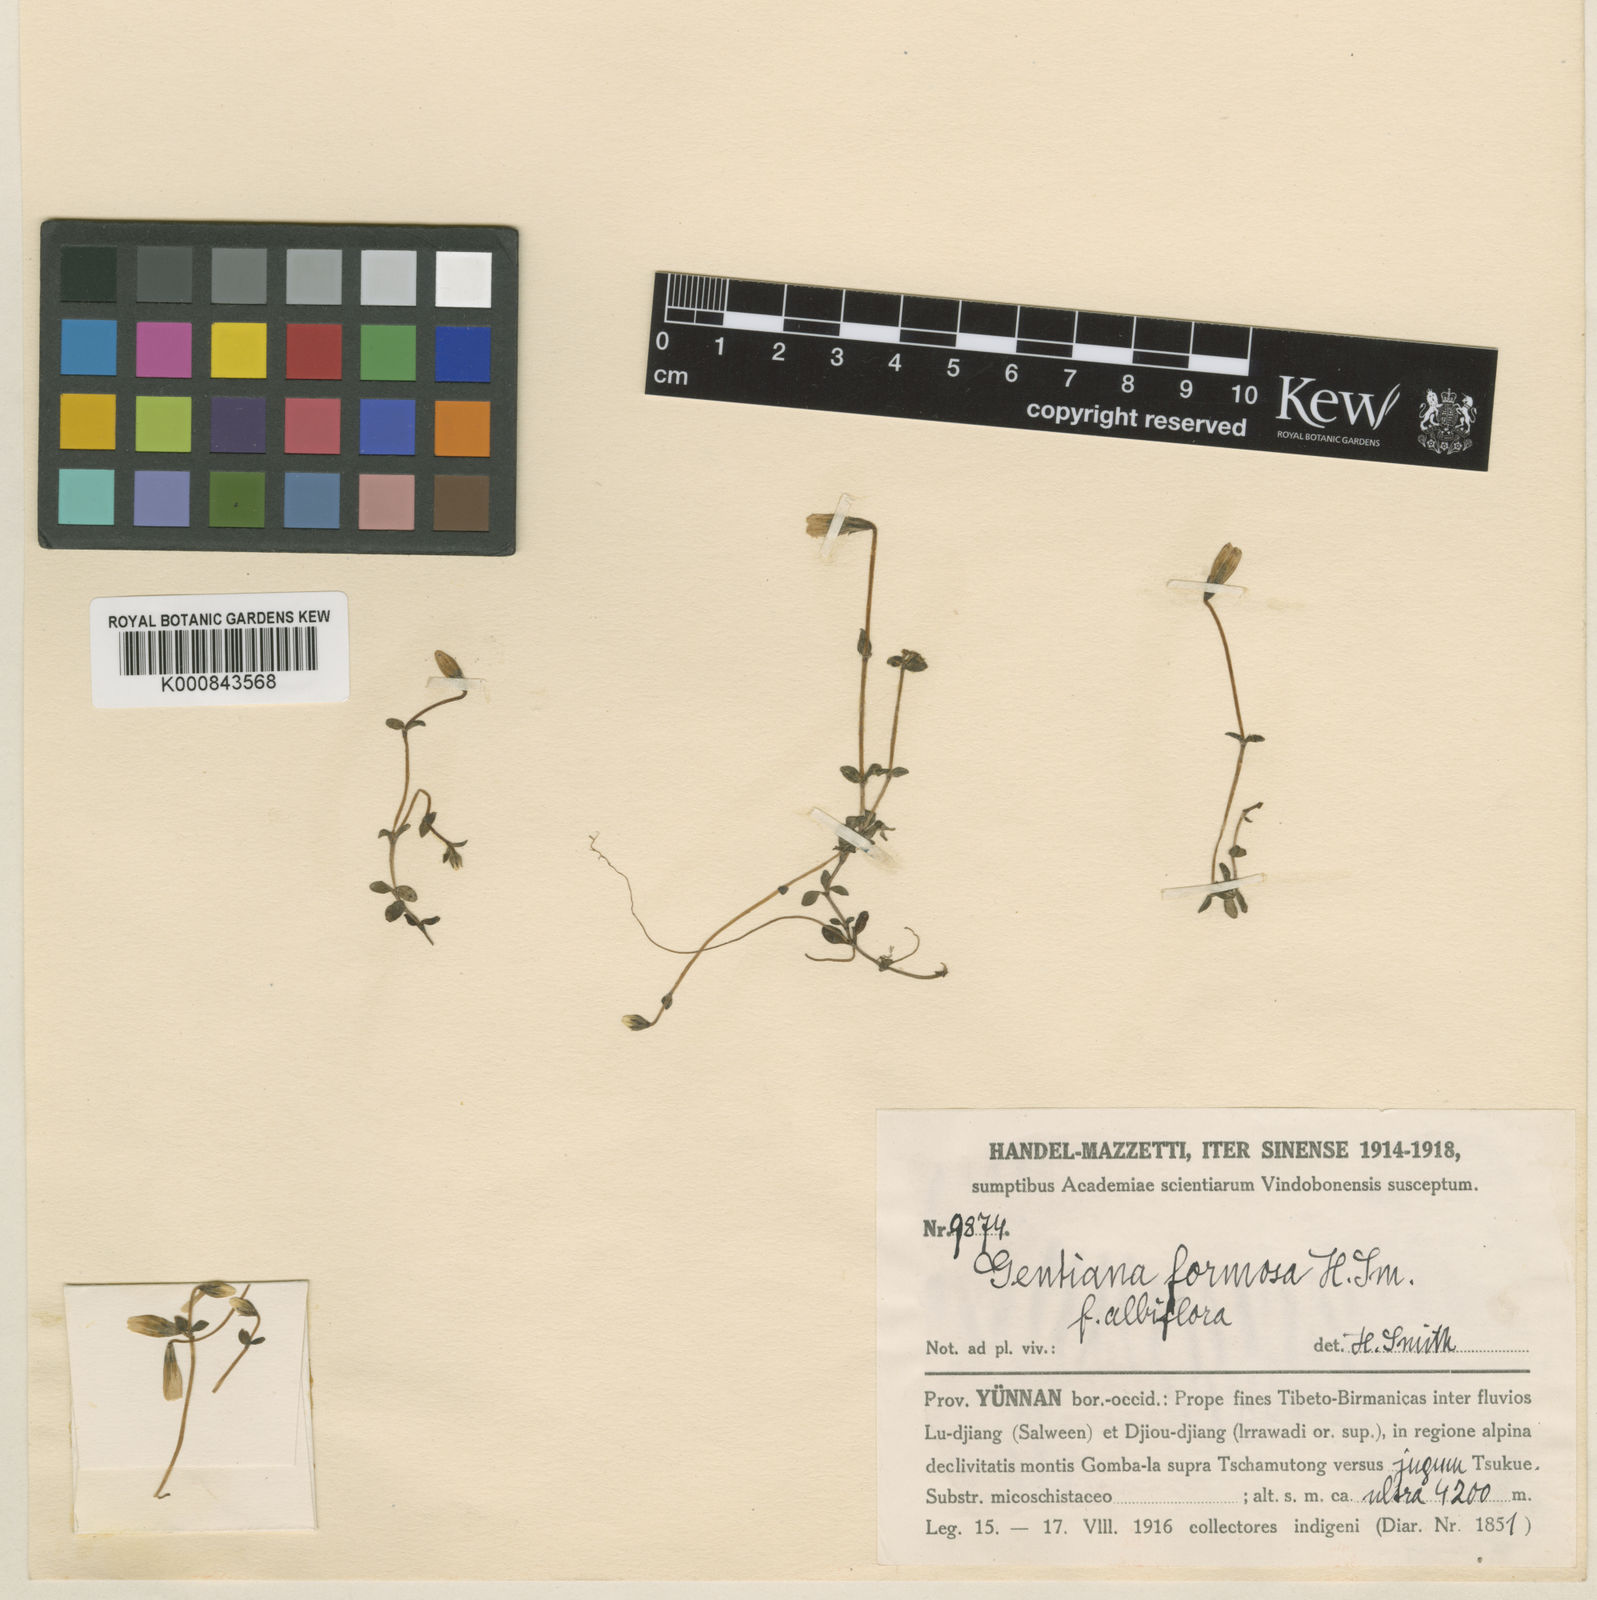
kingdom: Plantae
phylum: Tracheophyta
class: Magnoliopsida
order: Gentianales
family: Gentianaceae
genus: Gentiana
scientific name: Gentiana formosa
